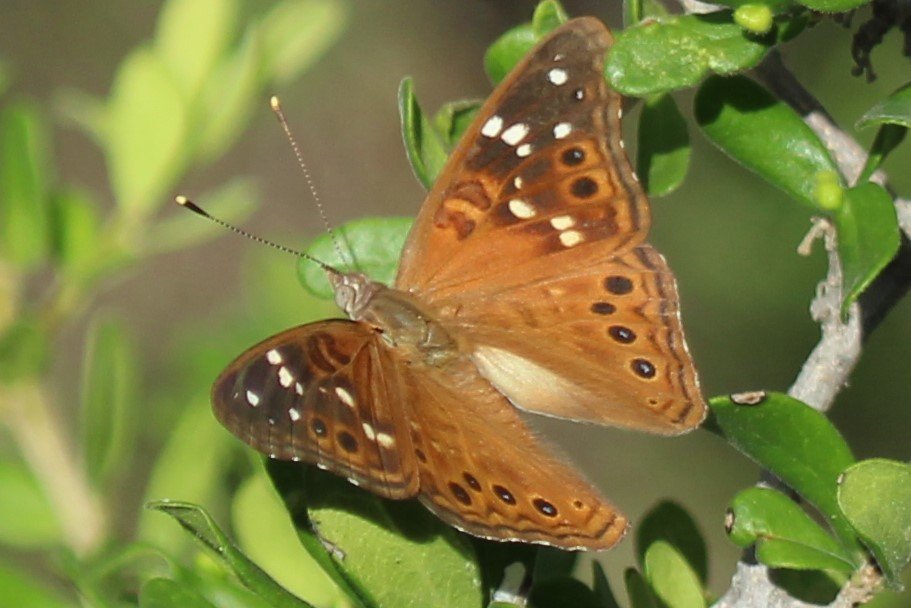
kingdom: Animalia
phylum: Arthropoda
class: Insecta
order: Lepidoptera
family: Nymphalidae
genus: Asterocampa
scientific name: Asterocampa leilia
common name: Empress Leilia
